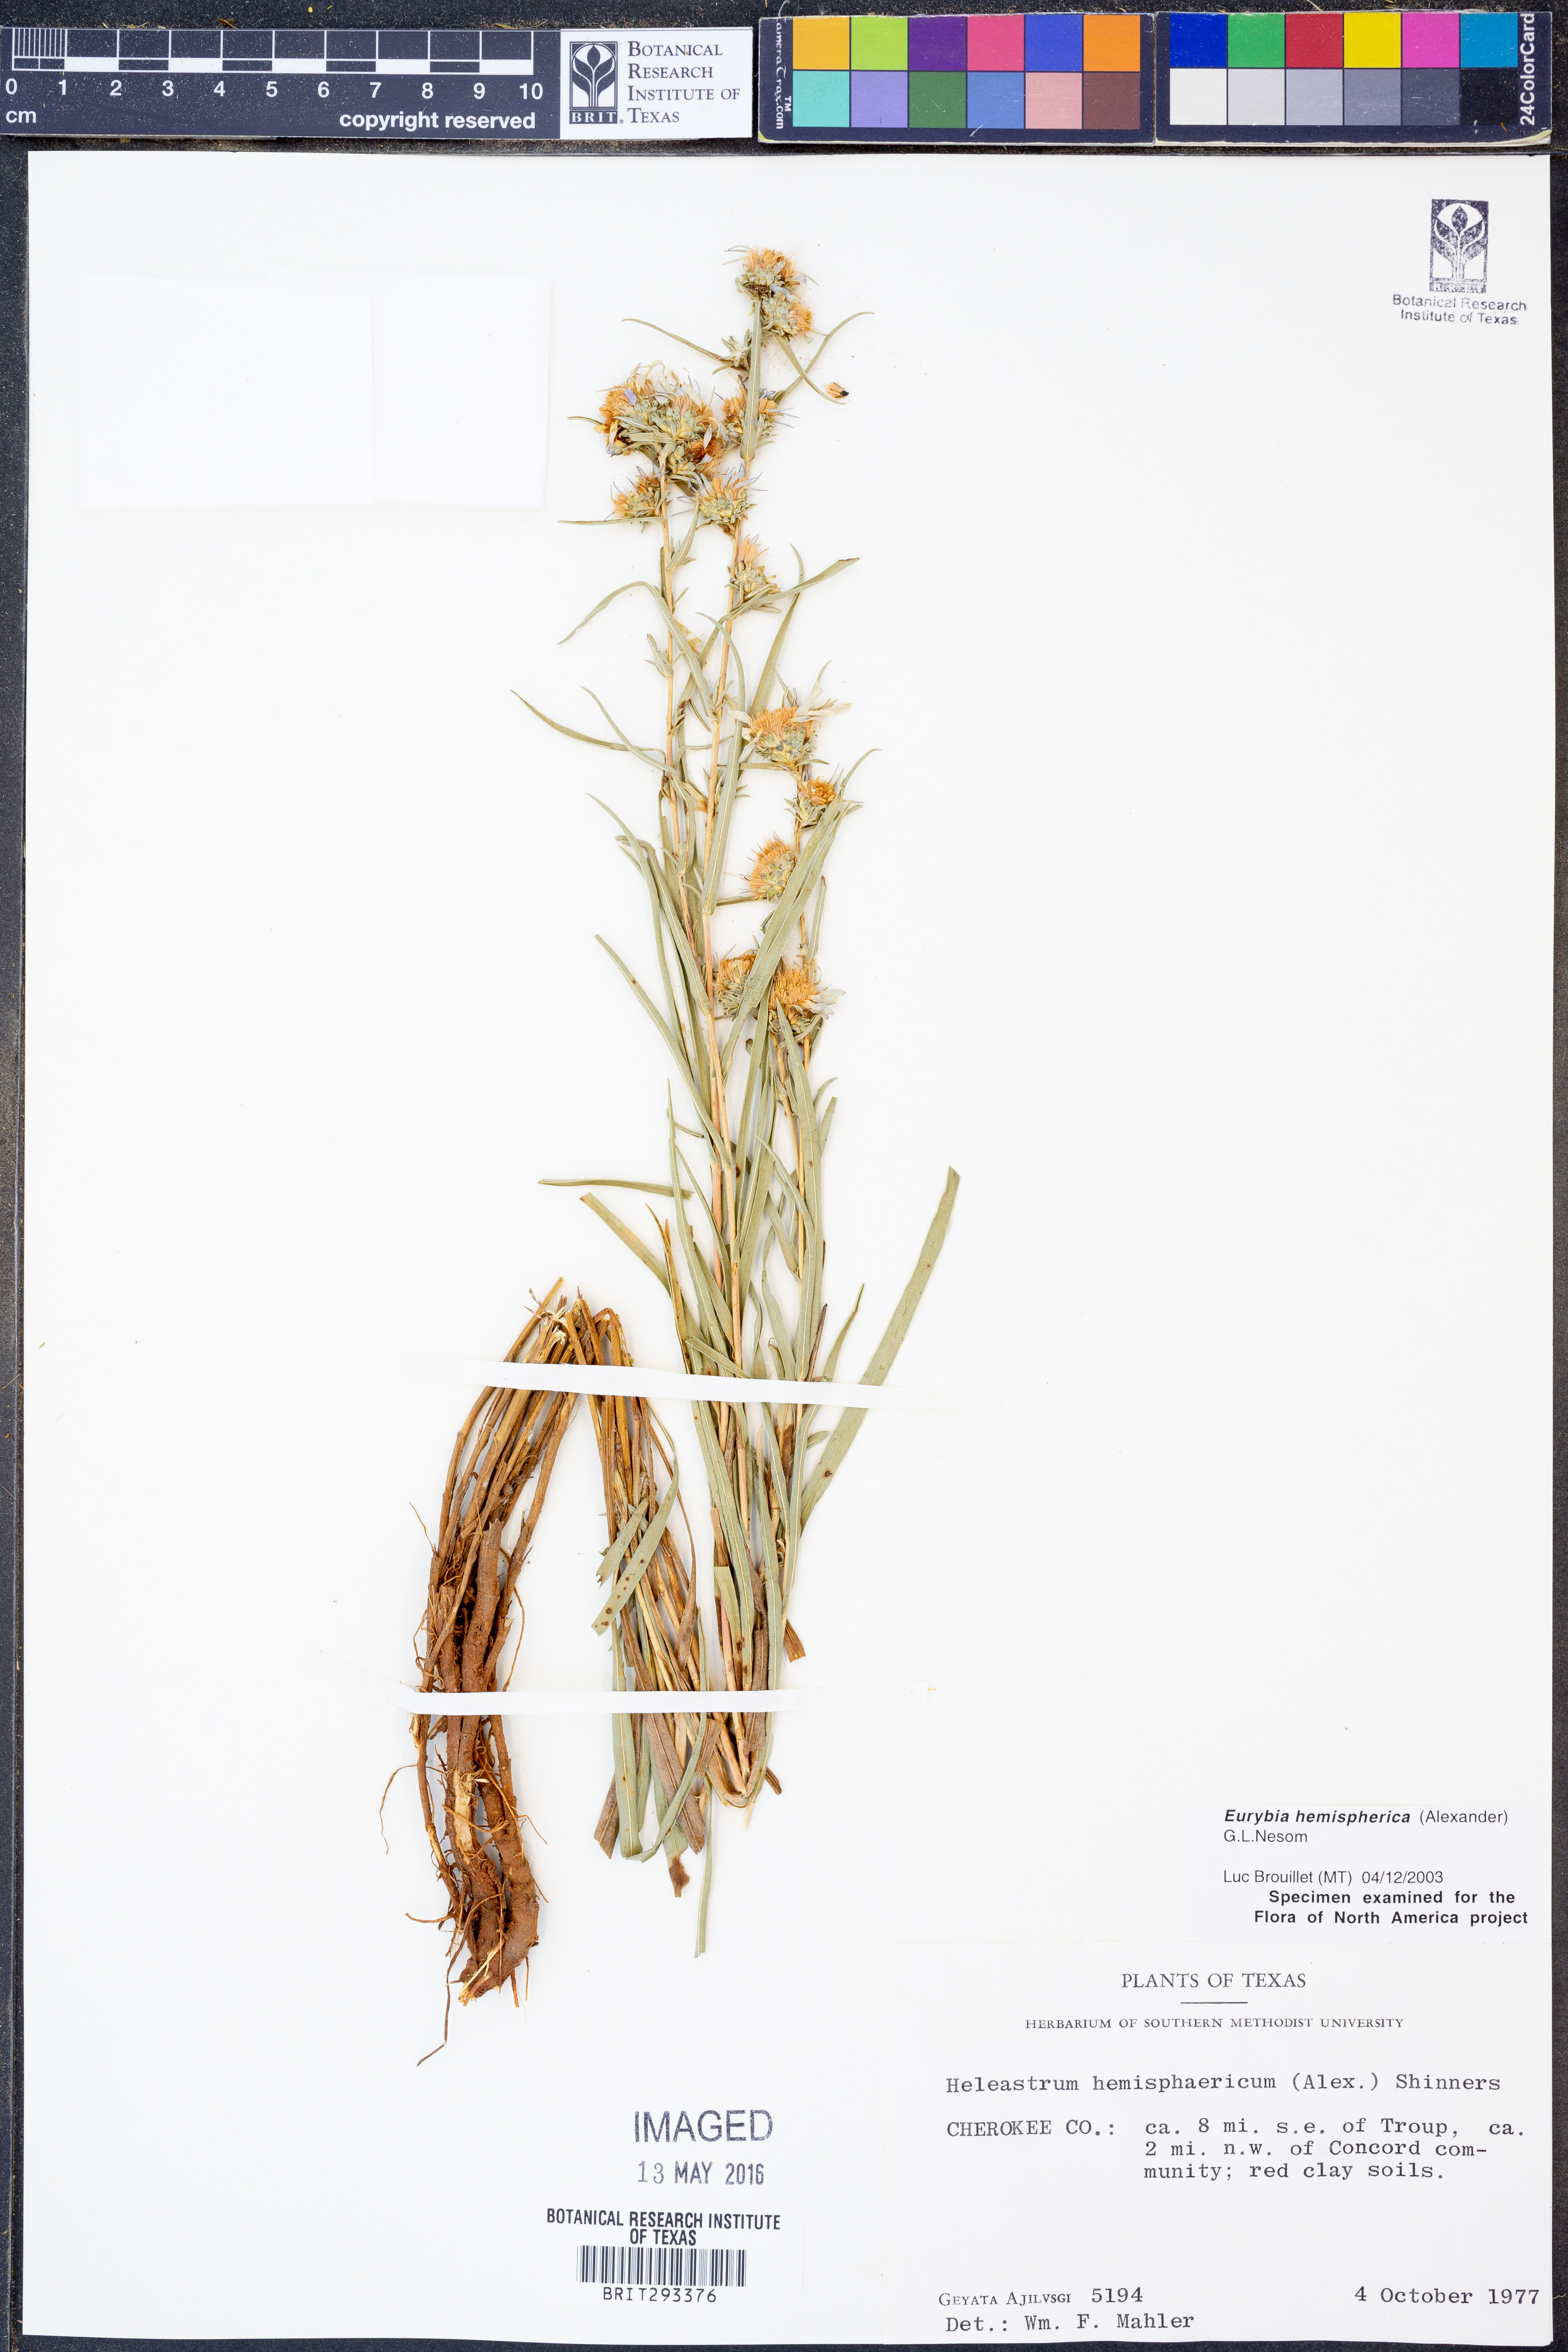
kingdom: Plantae
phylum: Tracheophyta
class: Magnoliopsida
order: Asterales
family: Asteraceae
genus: Eurybia
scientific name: Eurybia hemispherica
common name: Showy aster
